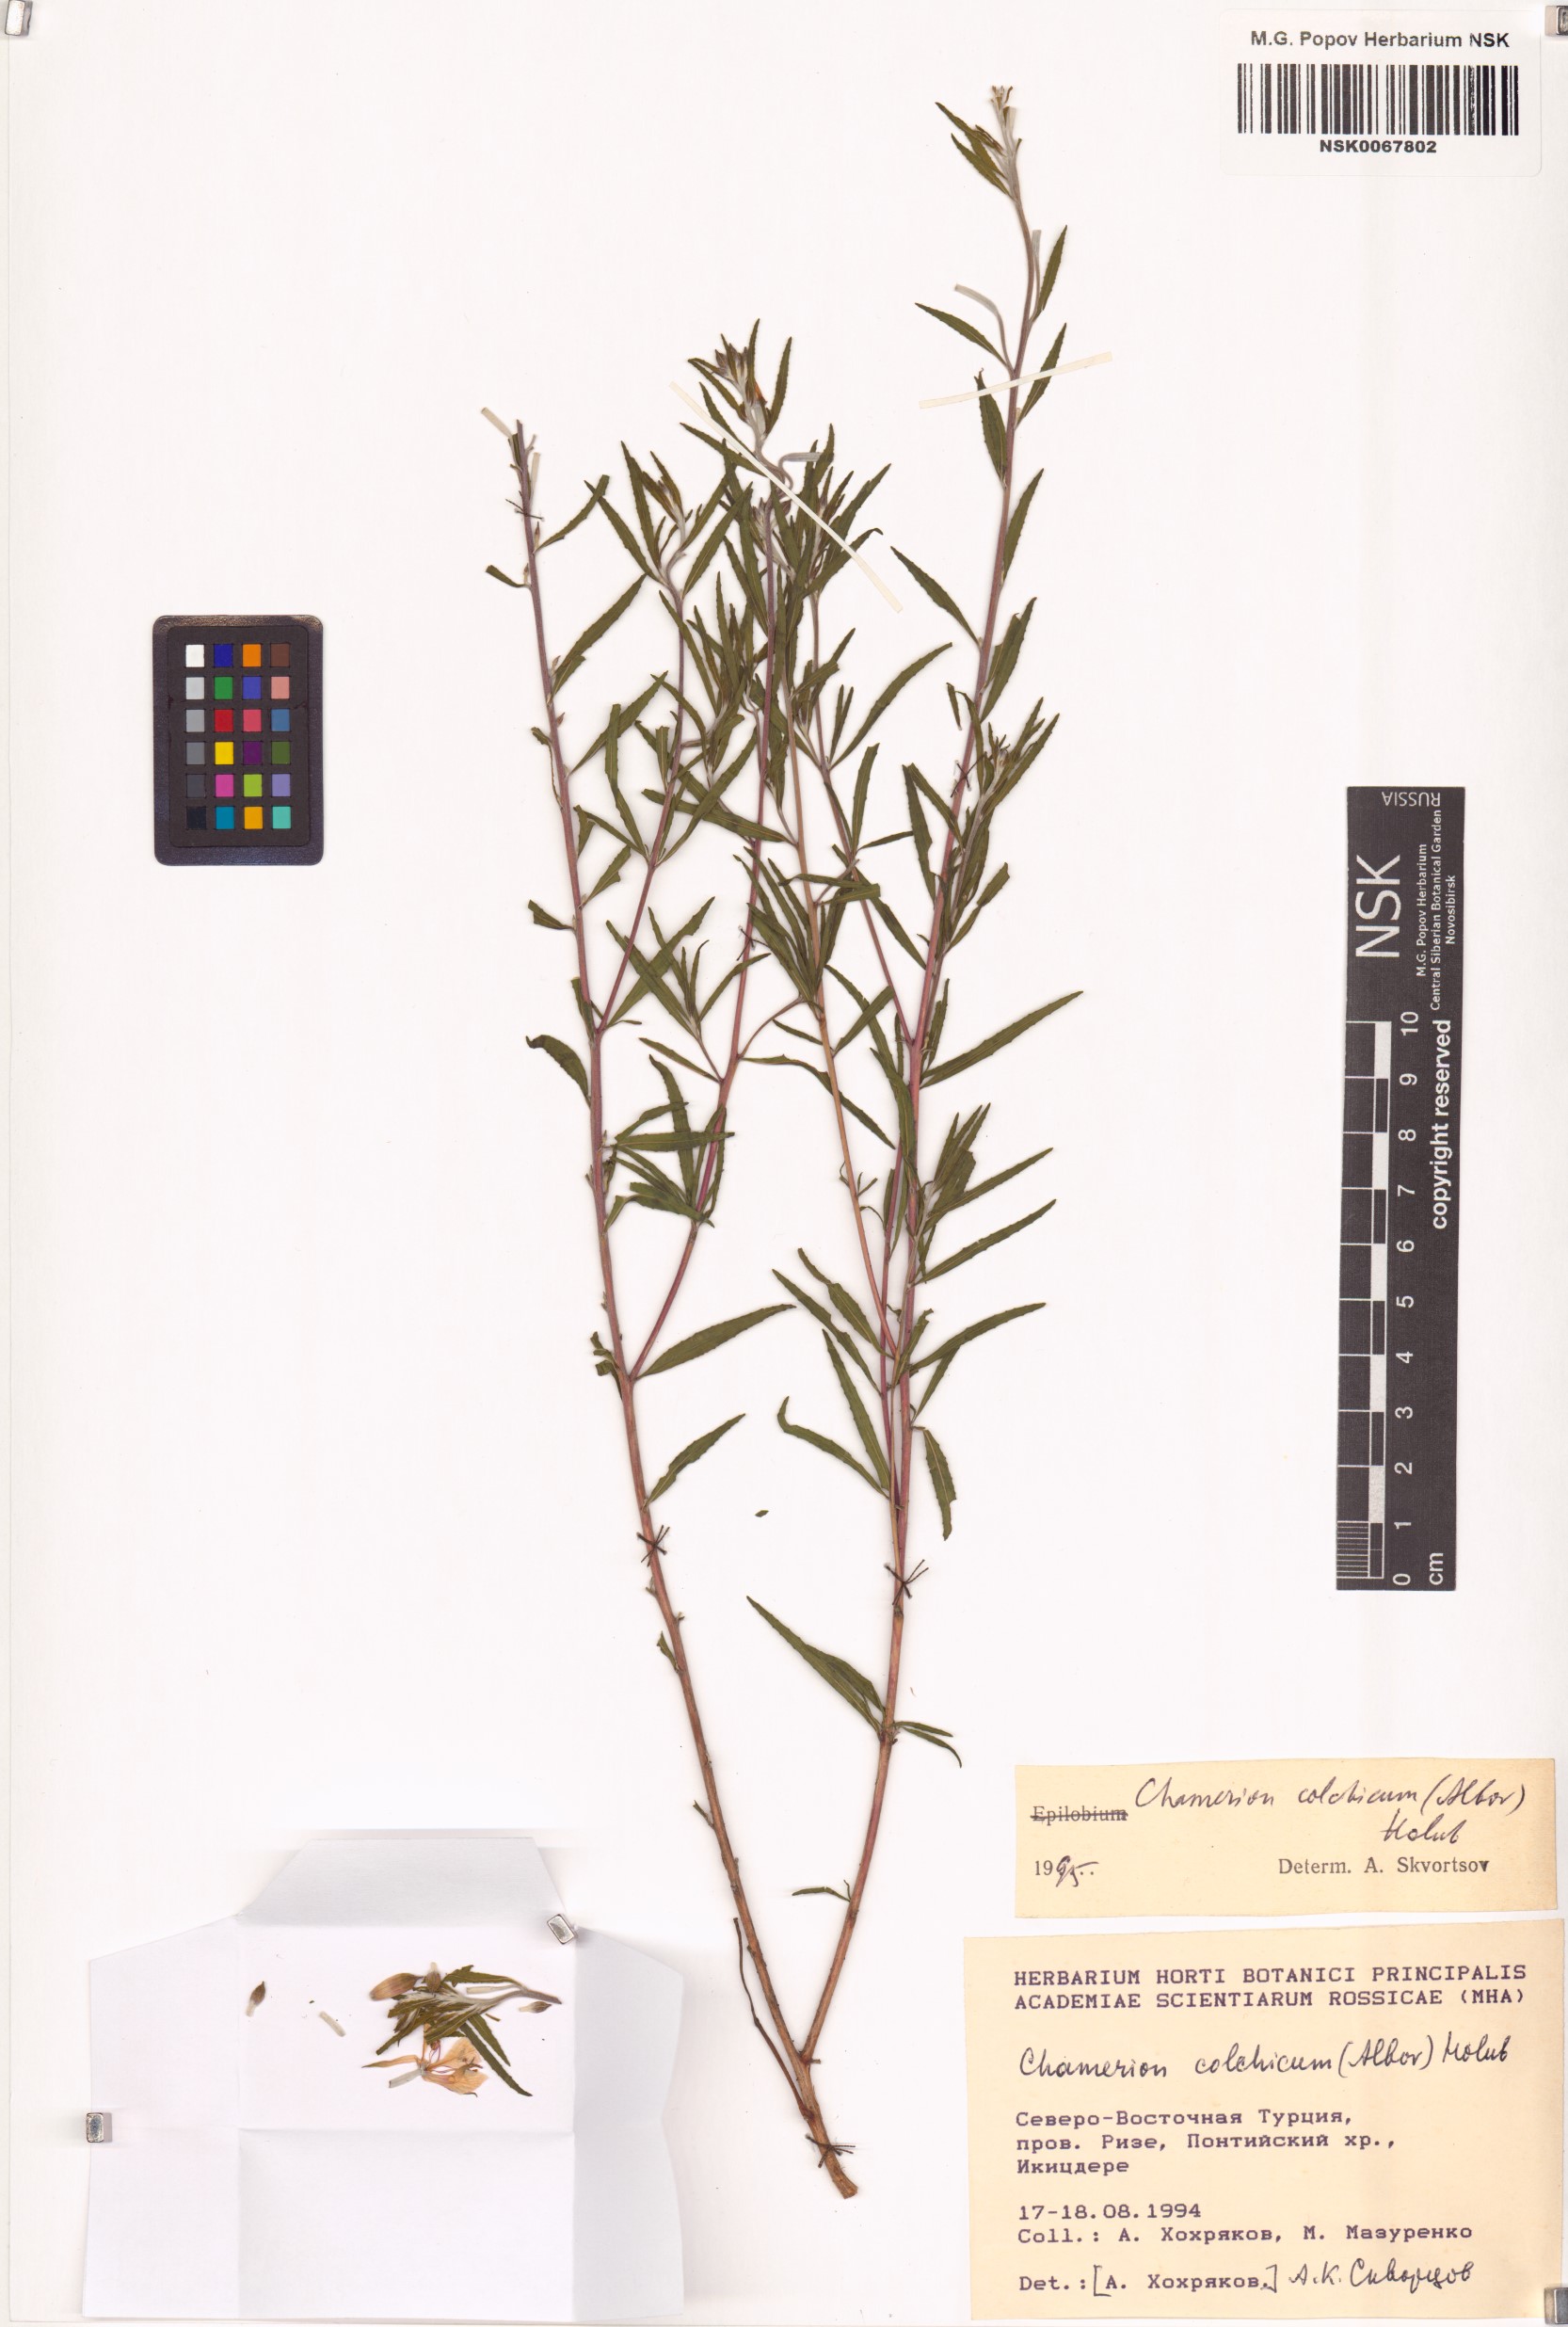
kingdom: Plantae
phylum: Tracheophyta
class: Magnoliopsida
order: Myrtales
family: Onagraceae
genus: Chamaenerion
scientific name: Chamaenerion colchicum
